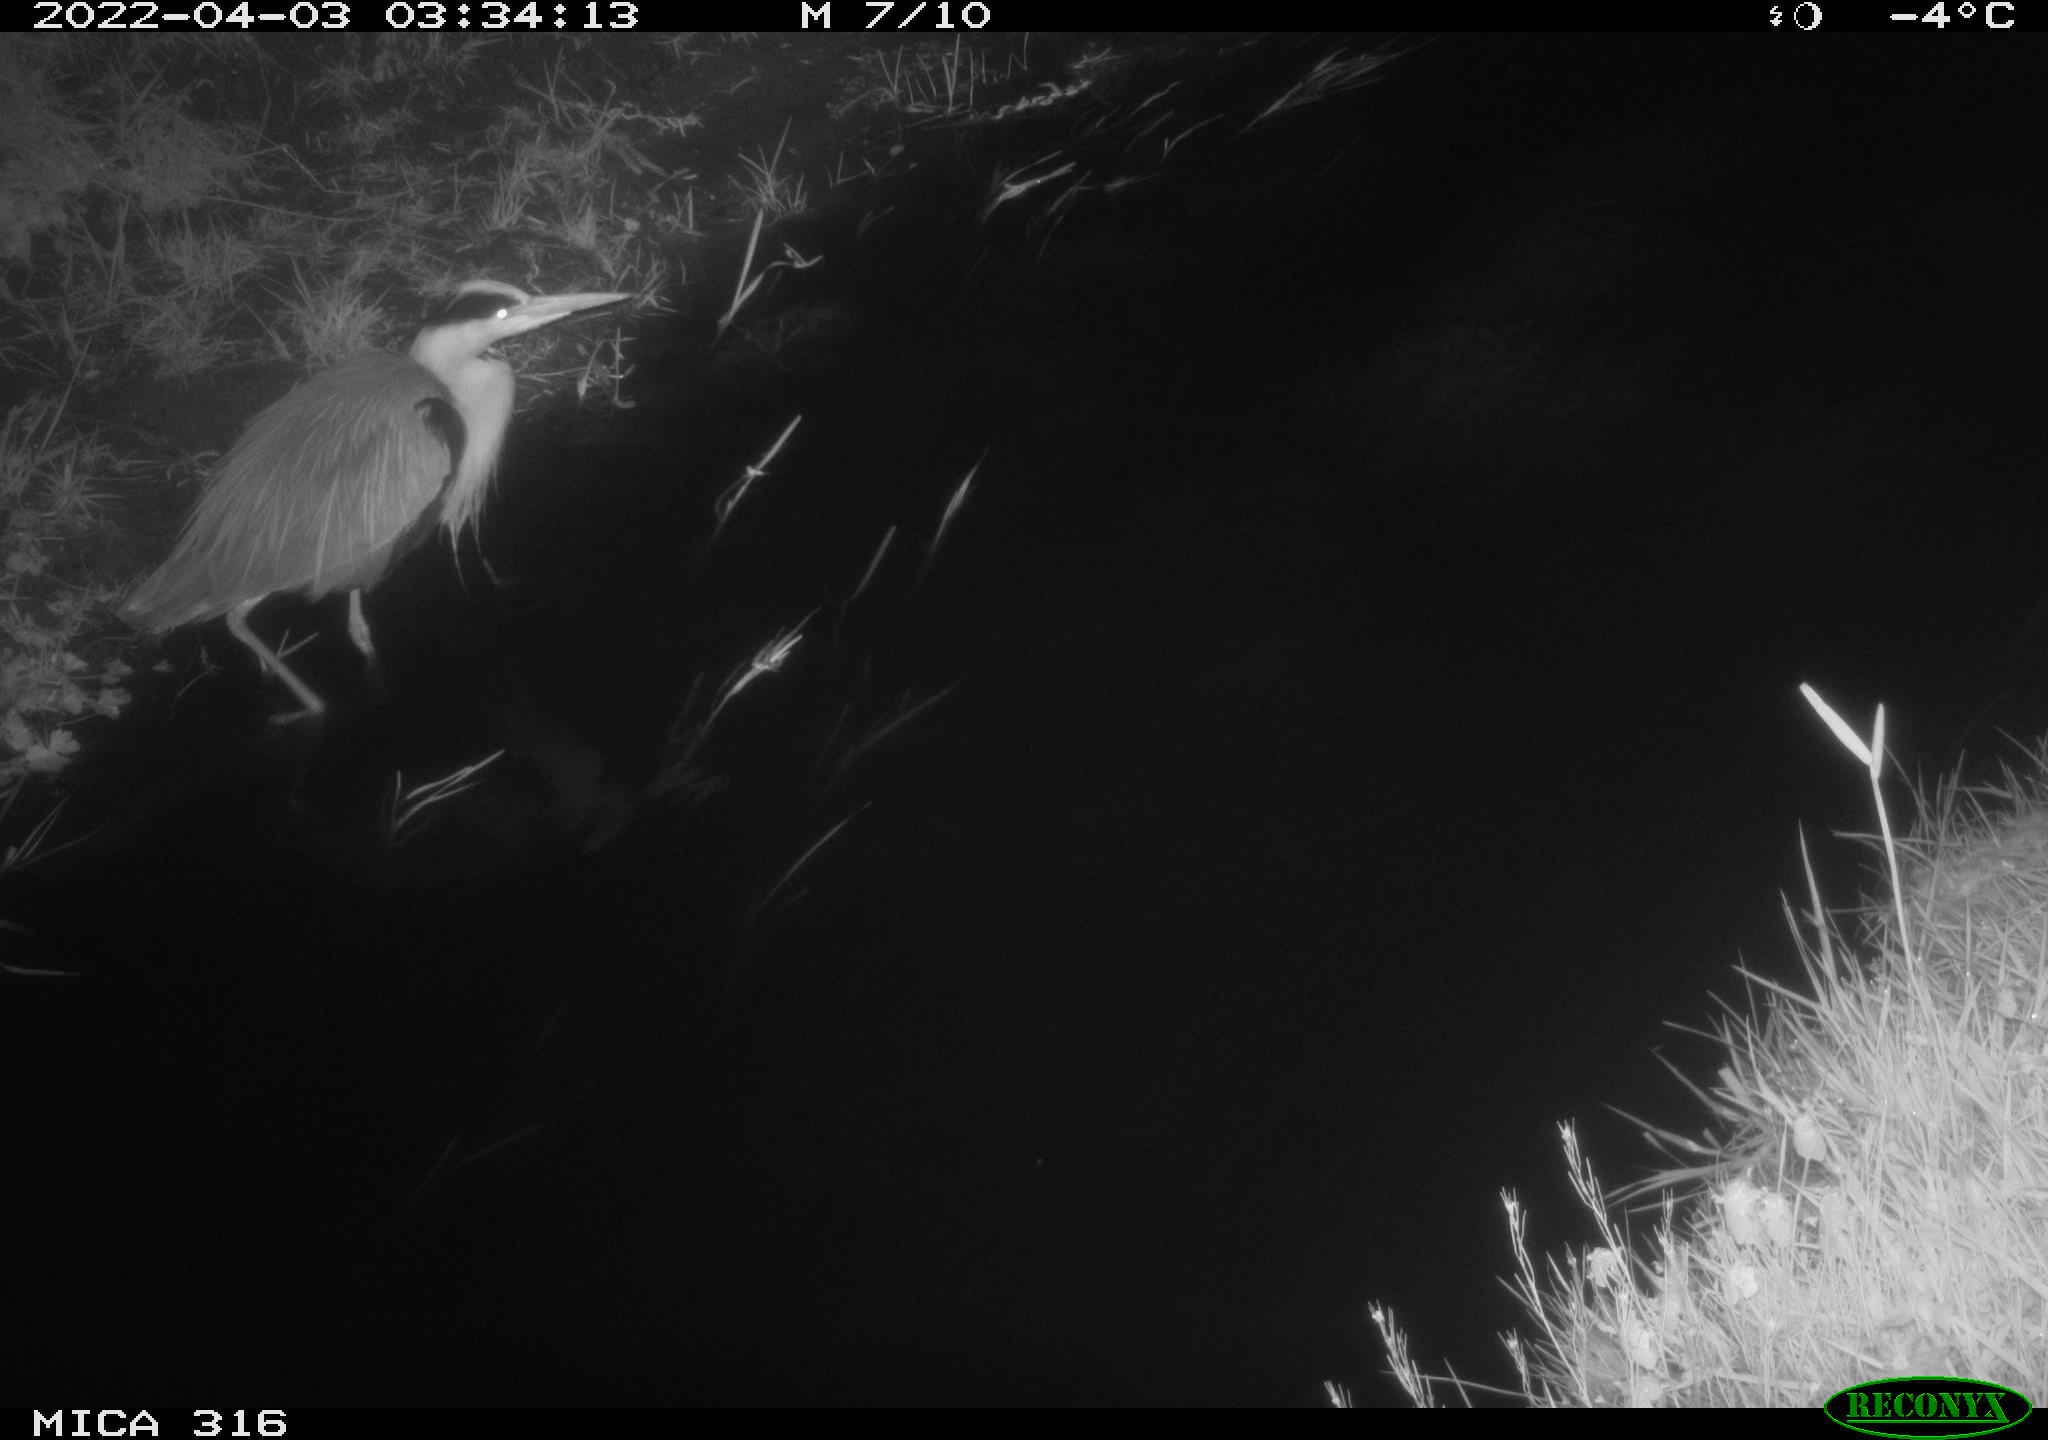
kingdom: Animalia
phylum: Chordata
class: Aves
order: Pelecaniformes
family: Ardeidae
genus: Ardea
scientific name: Ardea
